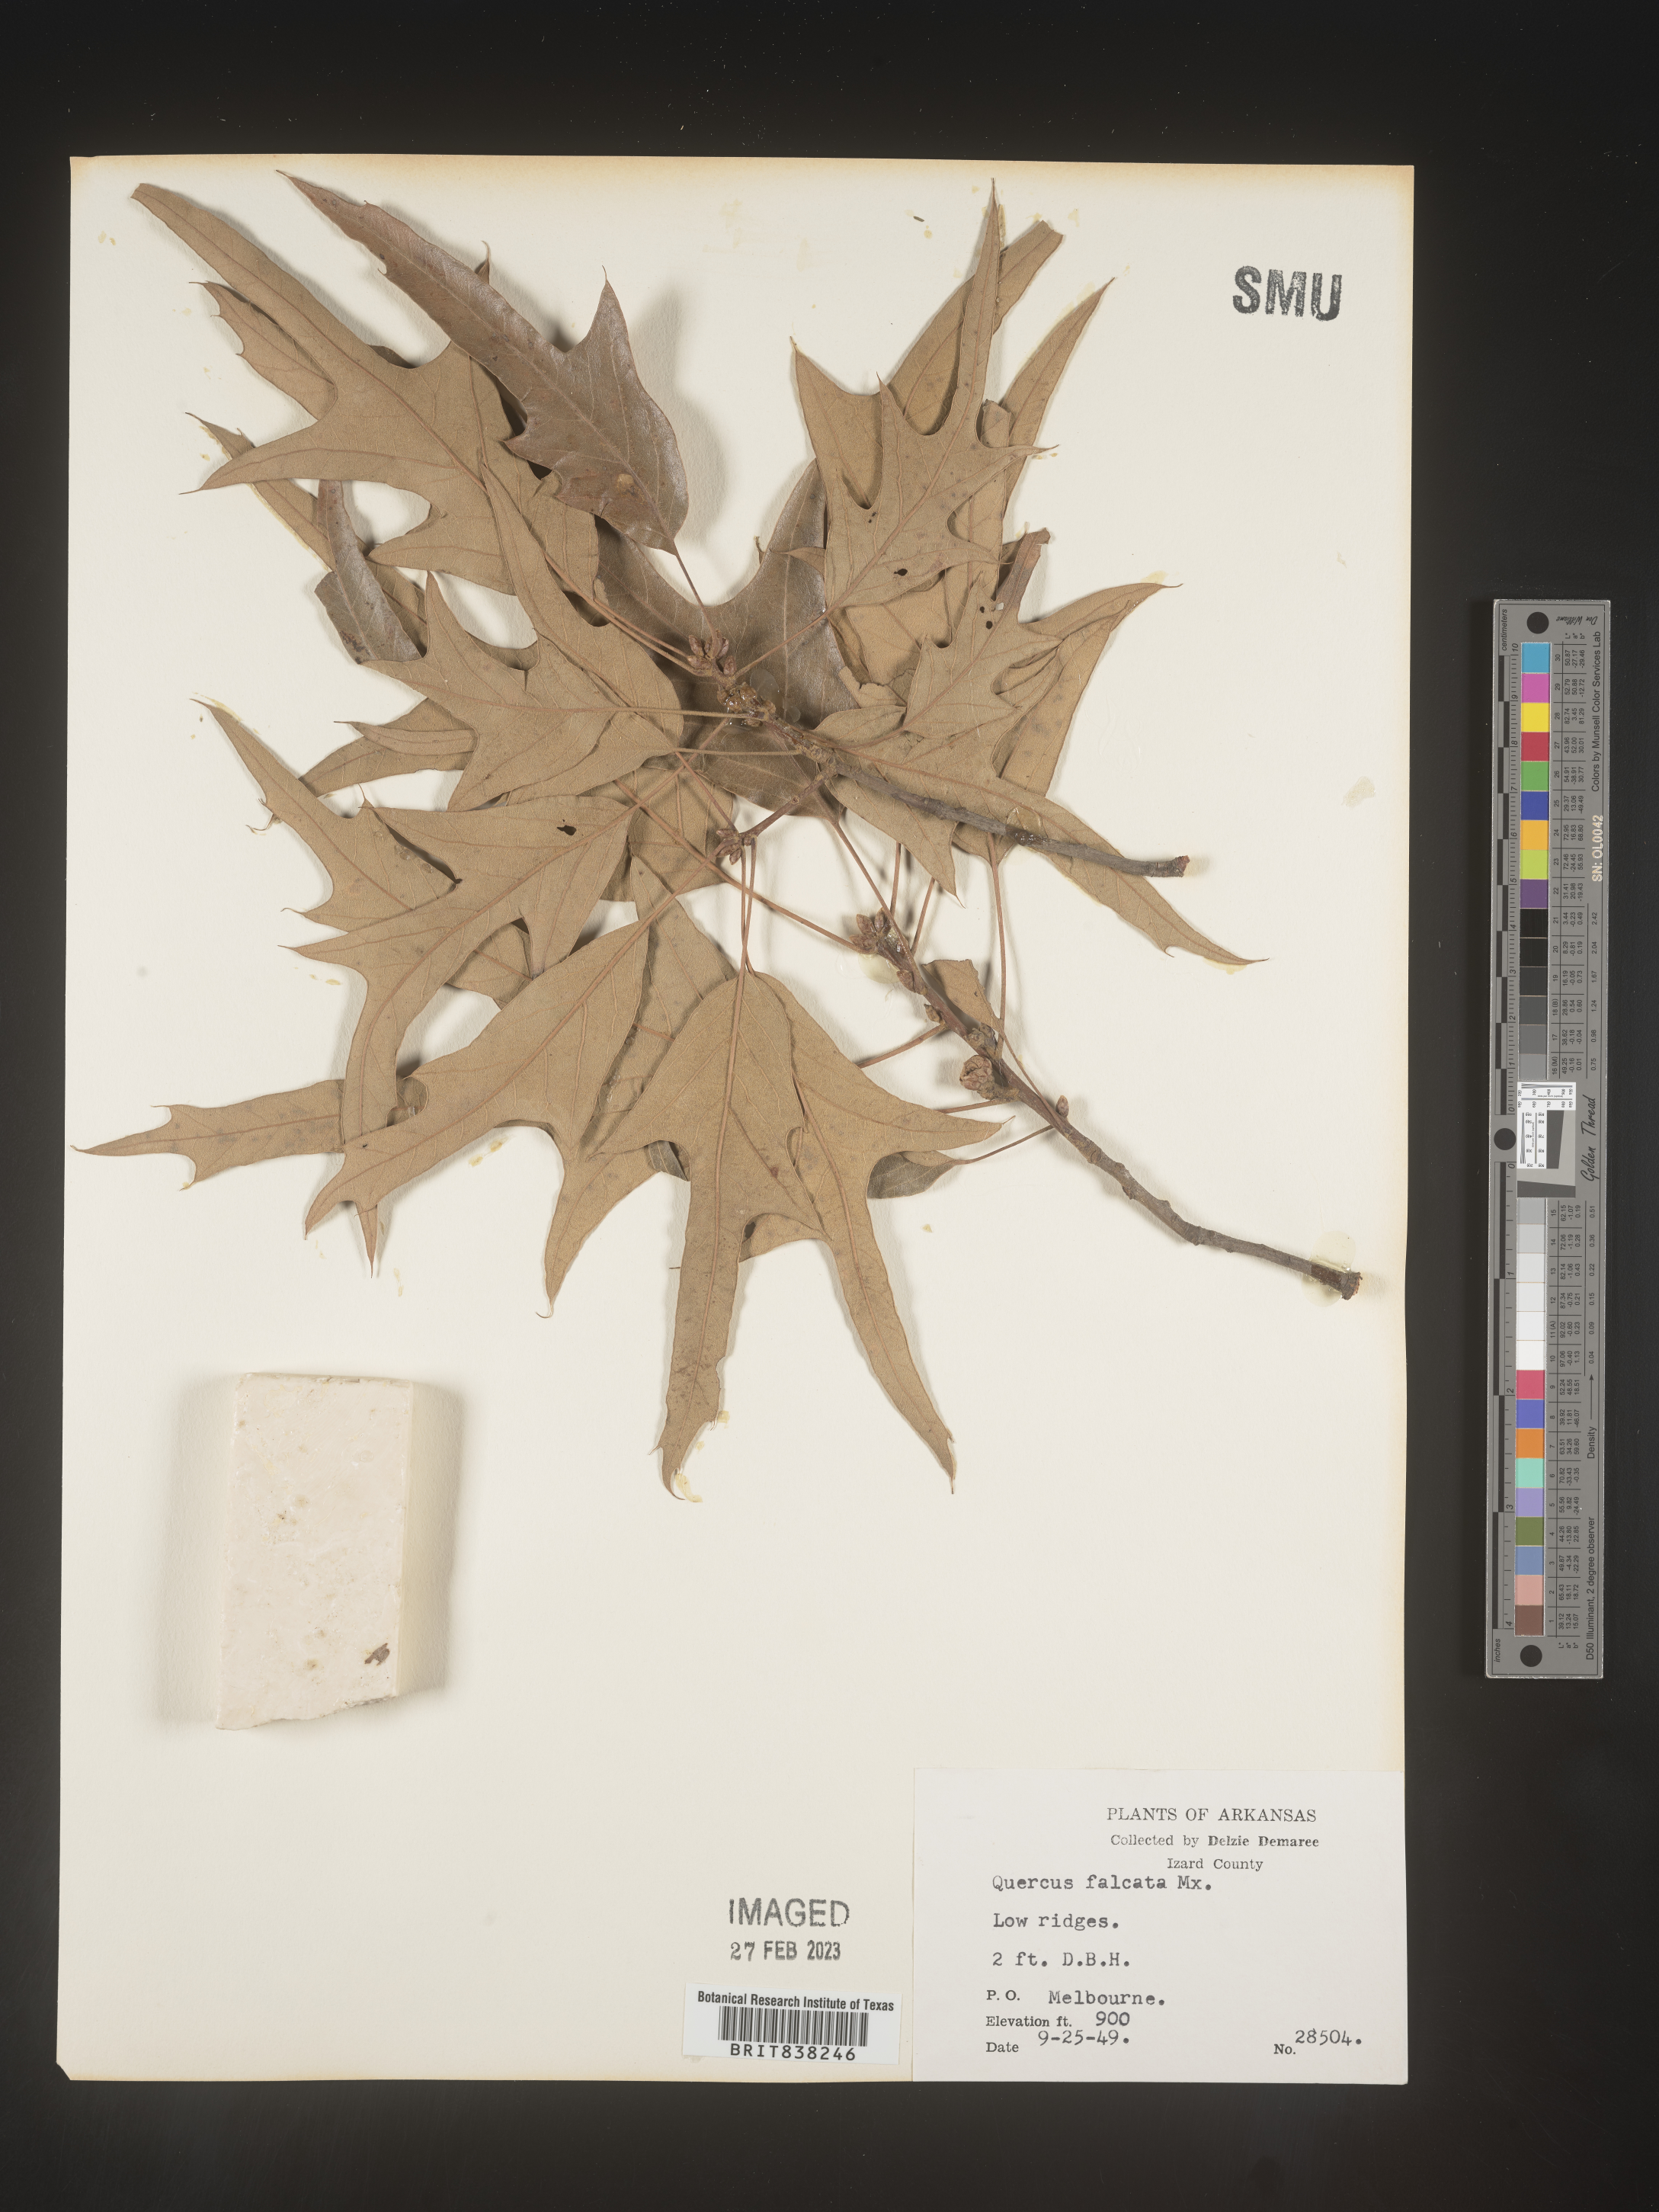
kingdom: Plantae
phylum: Tracheophyta
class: Magnoliopsida
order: Fagales
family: Fagaceae
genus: Quercus
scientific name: Quercus falcata
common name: Southern red oak
